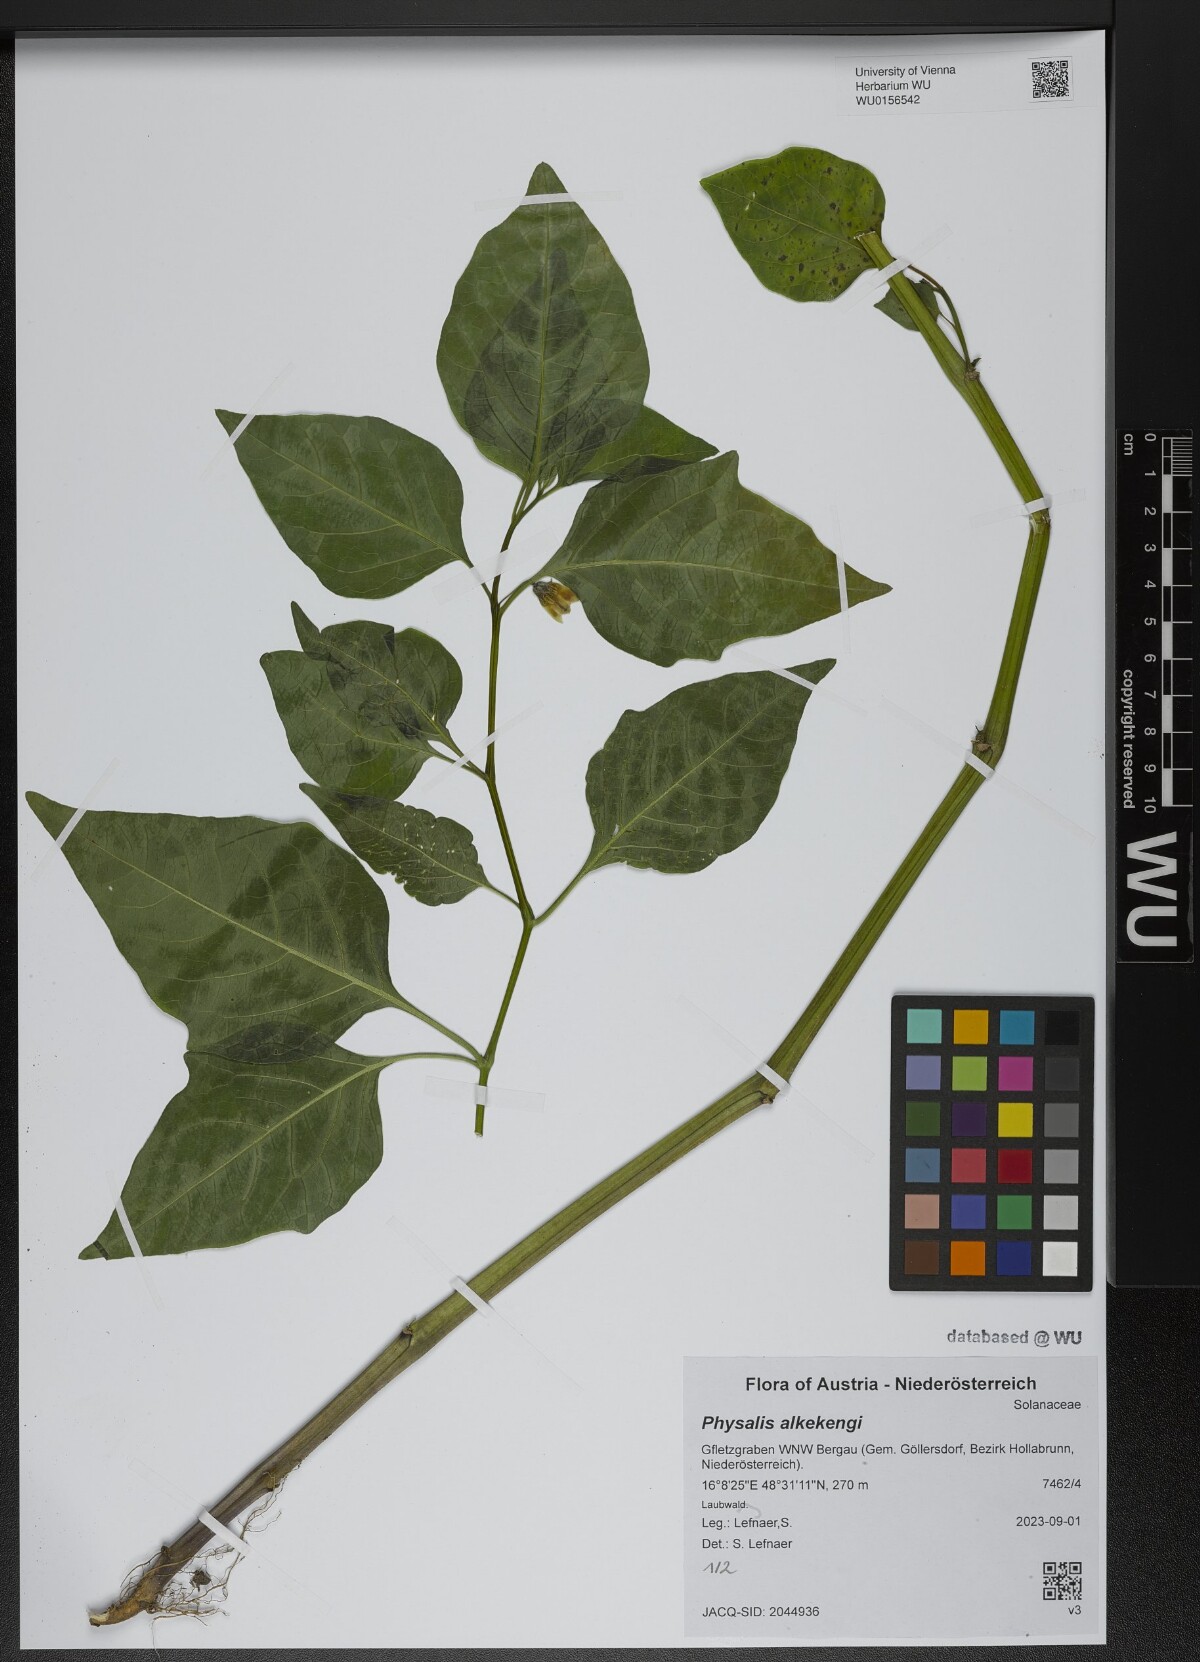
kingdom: Plantae
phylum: Tracheophyta
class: Magnoliopsida
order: Solanales
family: Solanaceae
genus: Alkekengi
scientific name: Alkekengi officinarum
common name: Japanese-lantern
